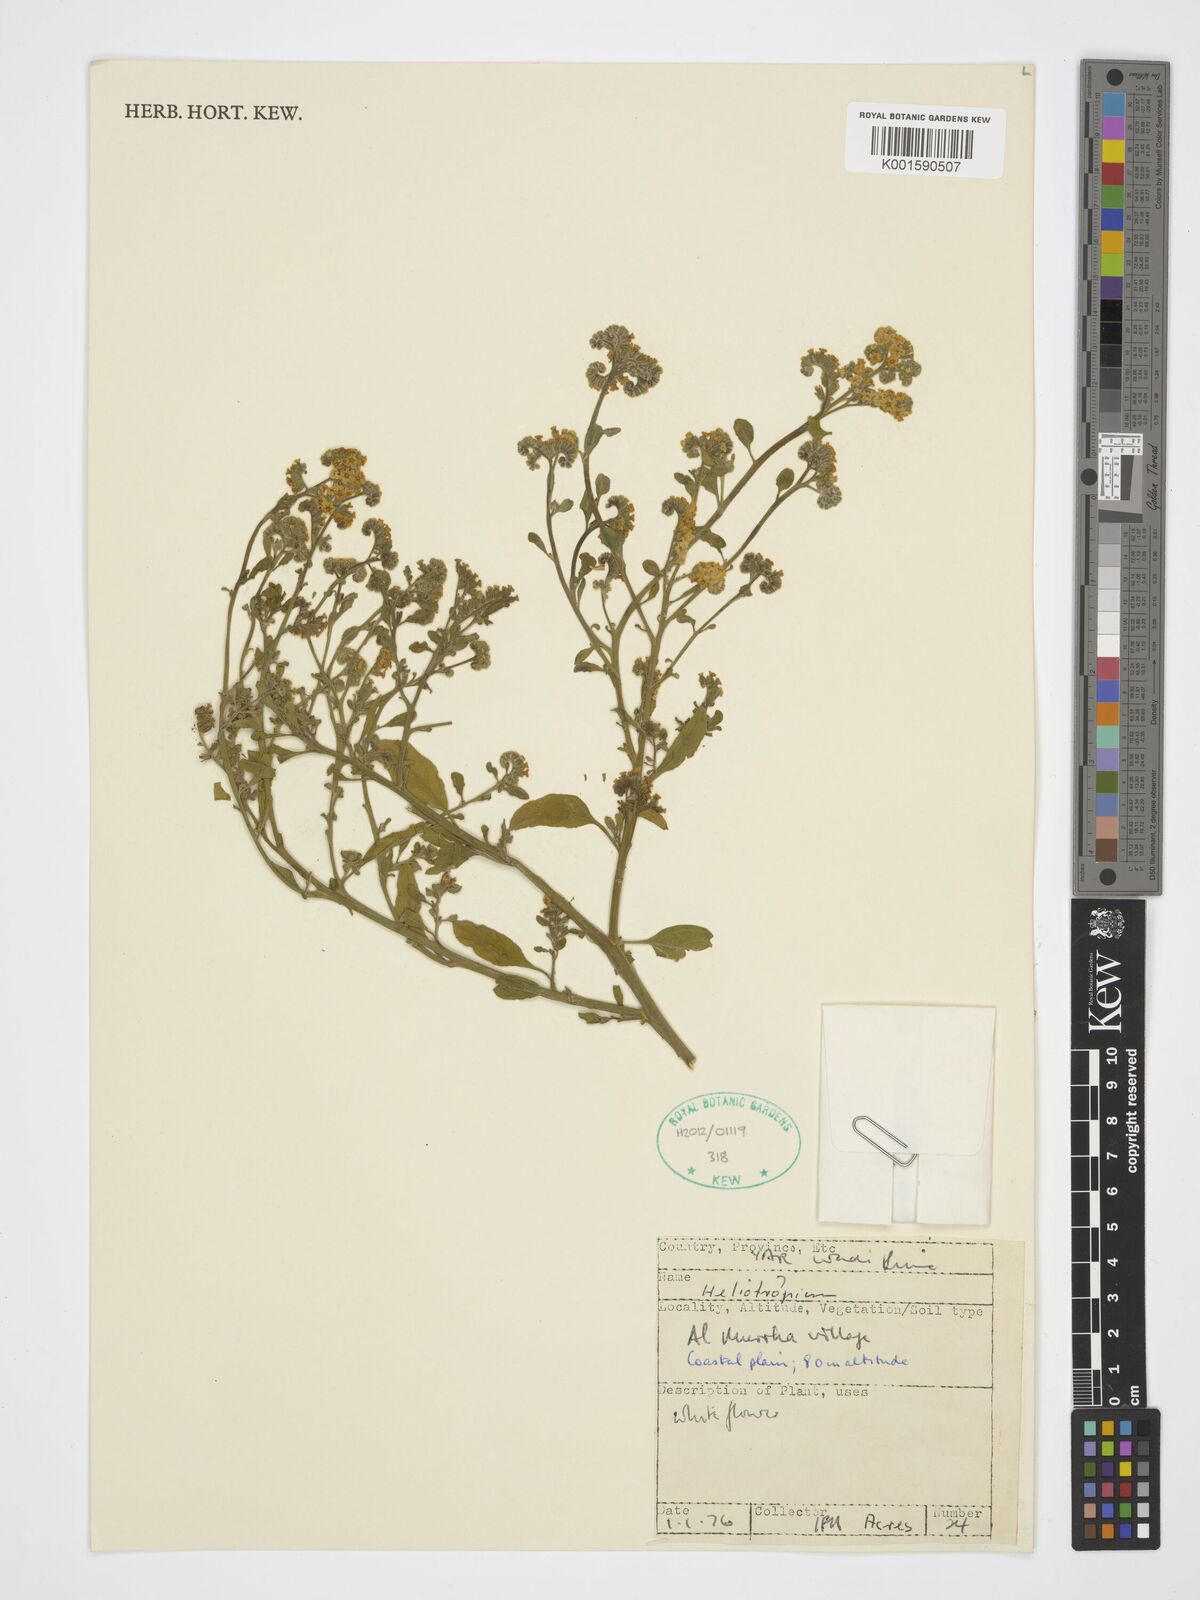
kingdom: Plantae
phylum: Tracheophyta
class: Magnoliopsida
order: Boraginales
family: Heliotropiaceae
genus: Heliotropium
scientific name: Heliotropium
